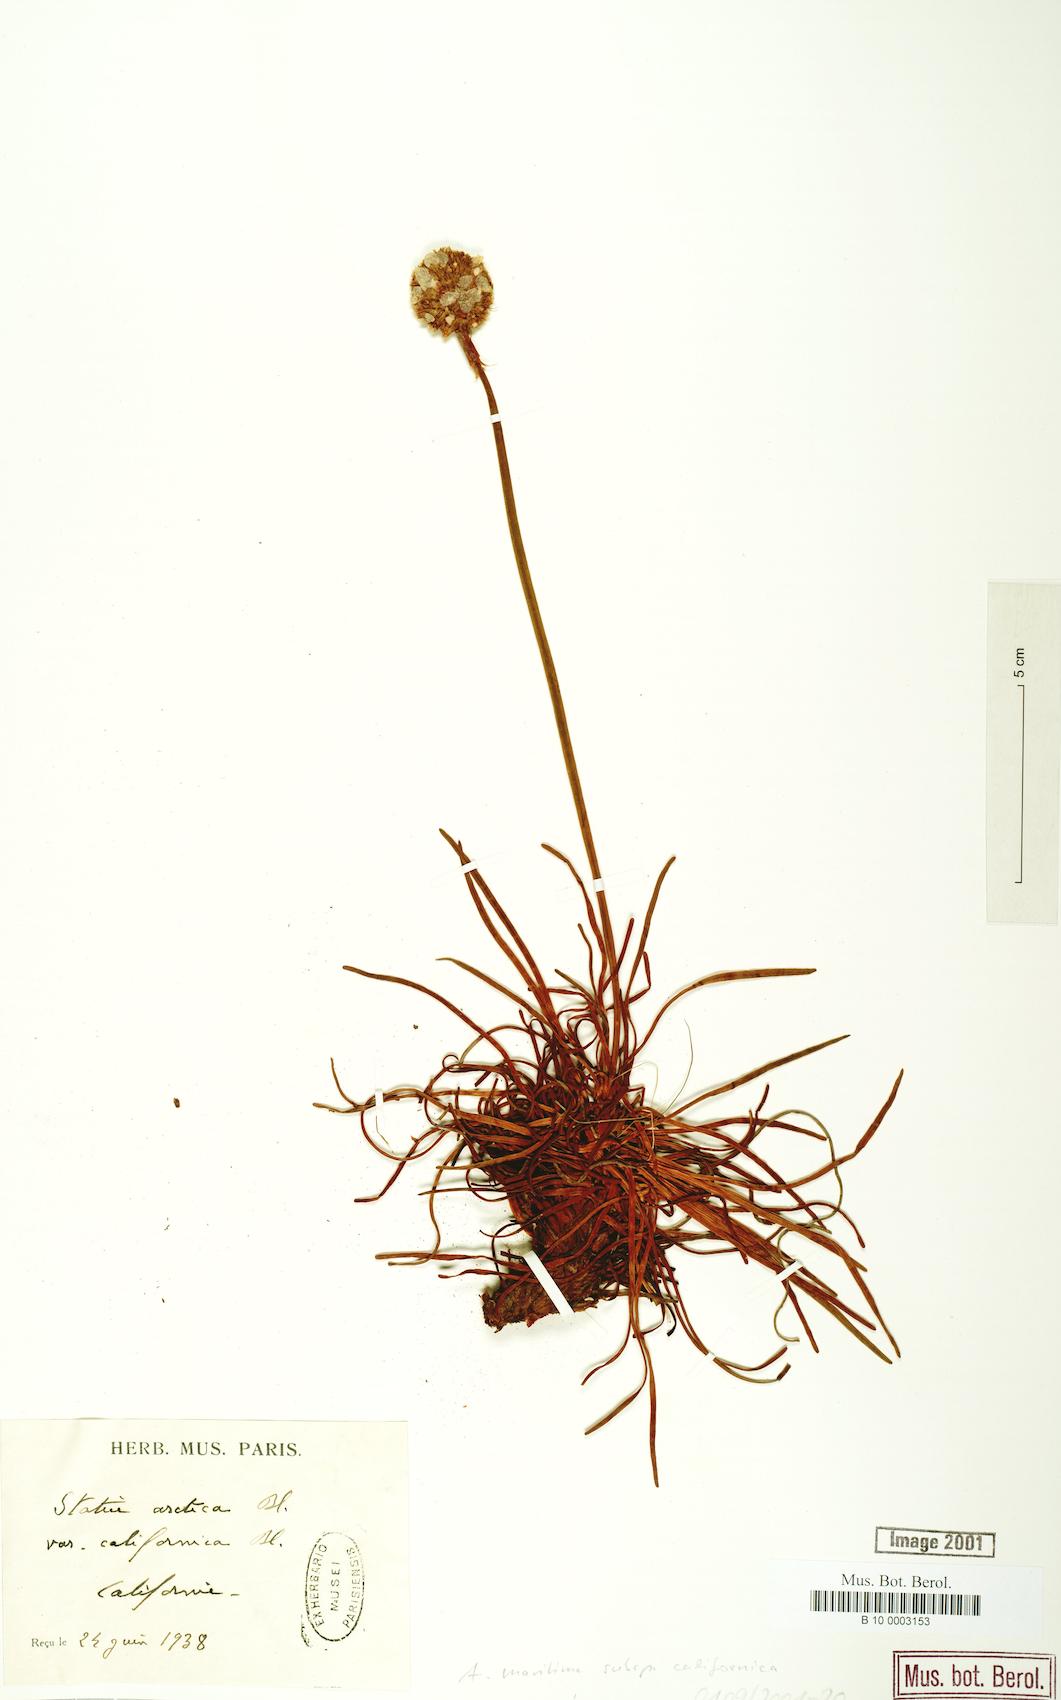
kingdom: Plantae
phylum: Tracheophyta
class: Magnoliopsida
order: Caryophyllales
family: Plumbaginaceae
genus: Armeria
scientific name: Armeria maritima
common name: Thrift
